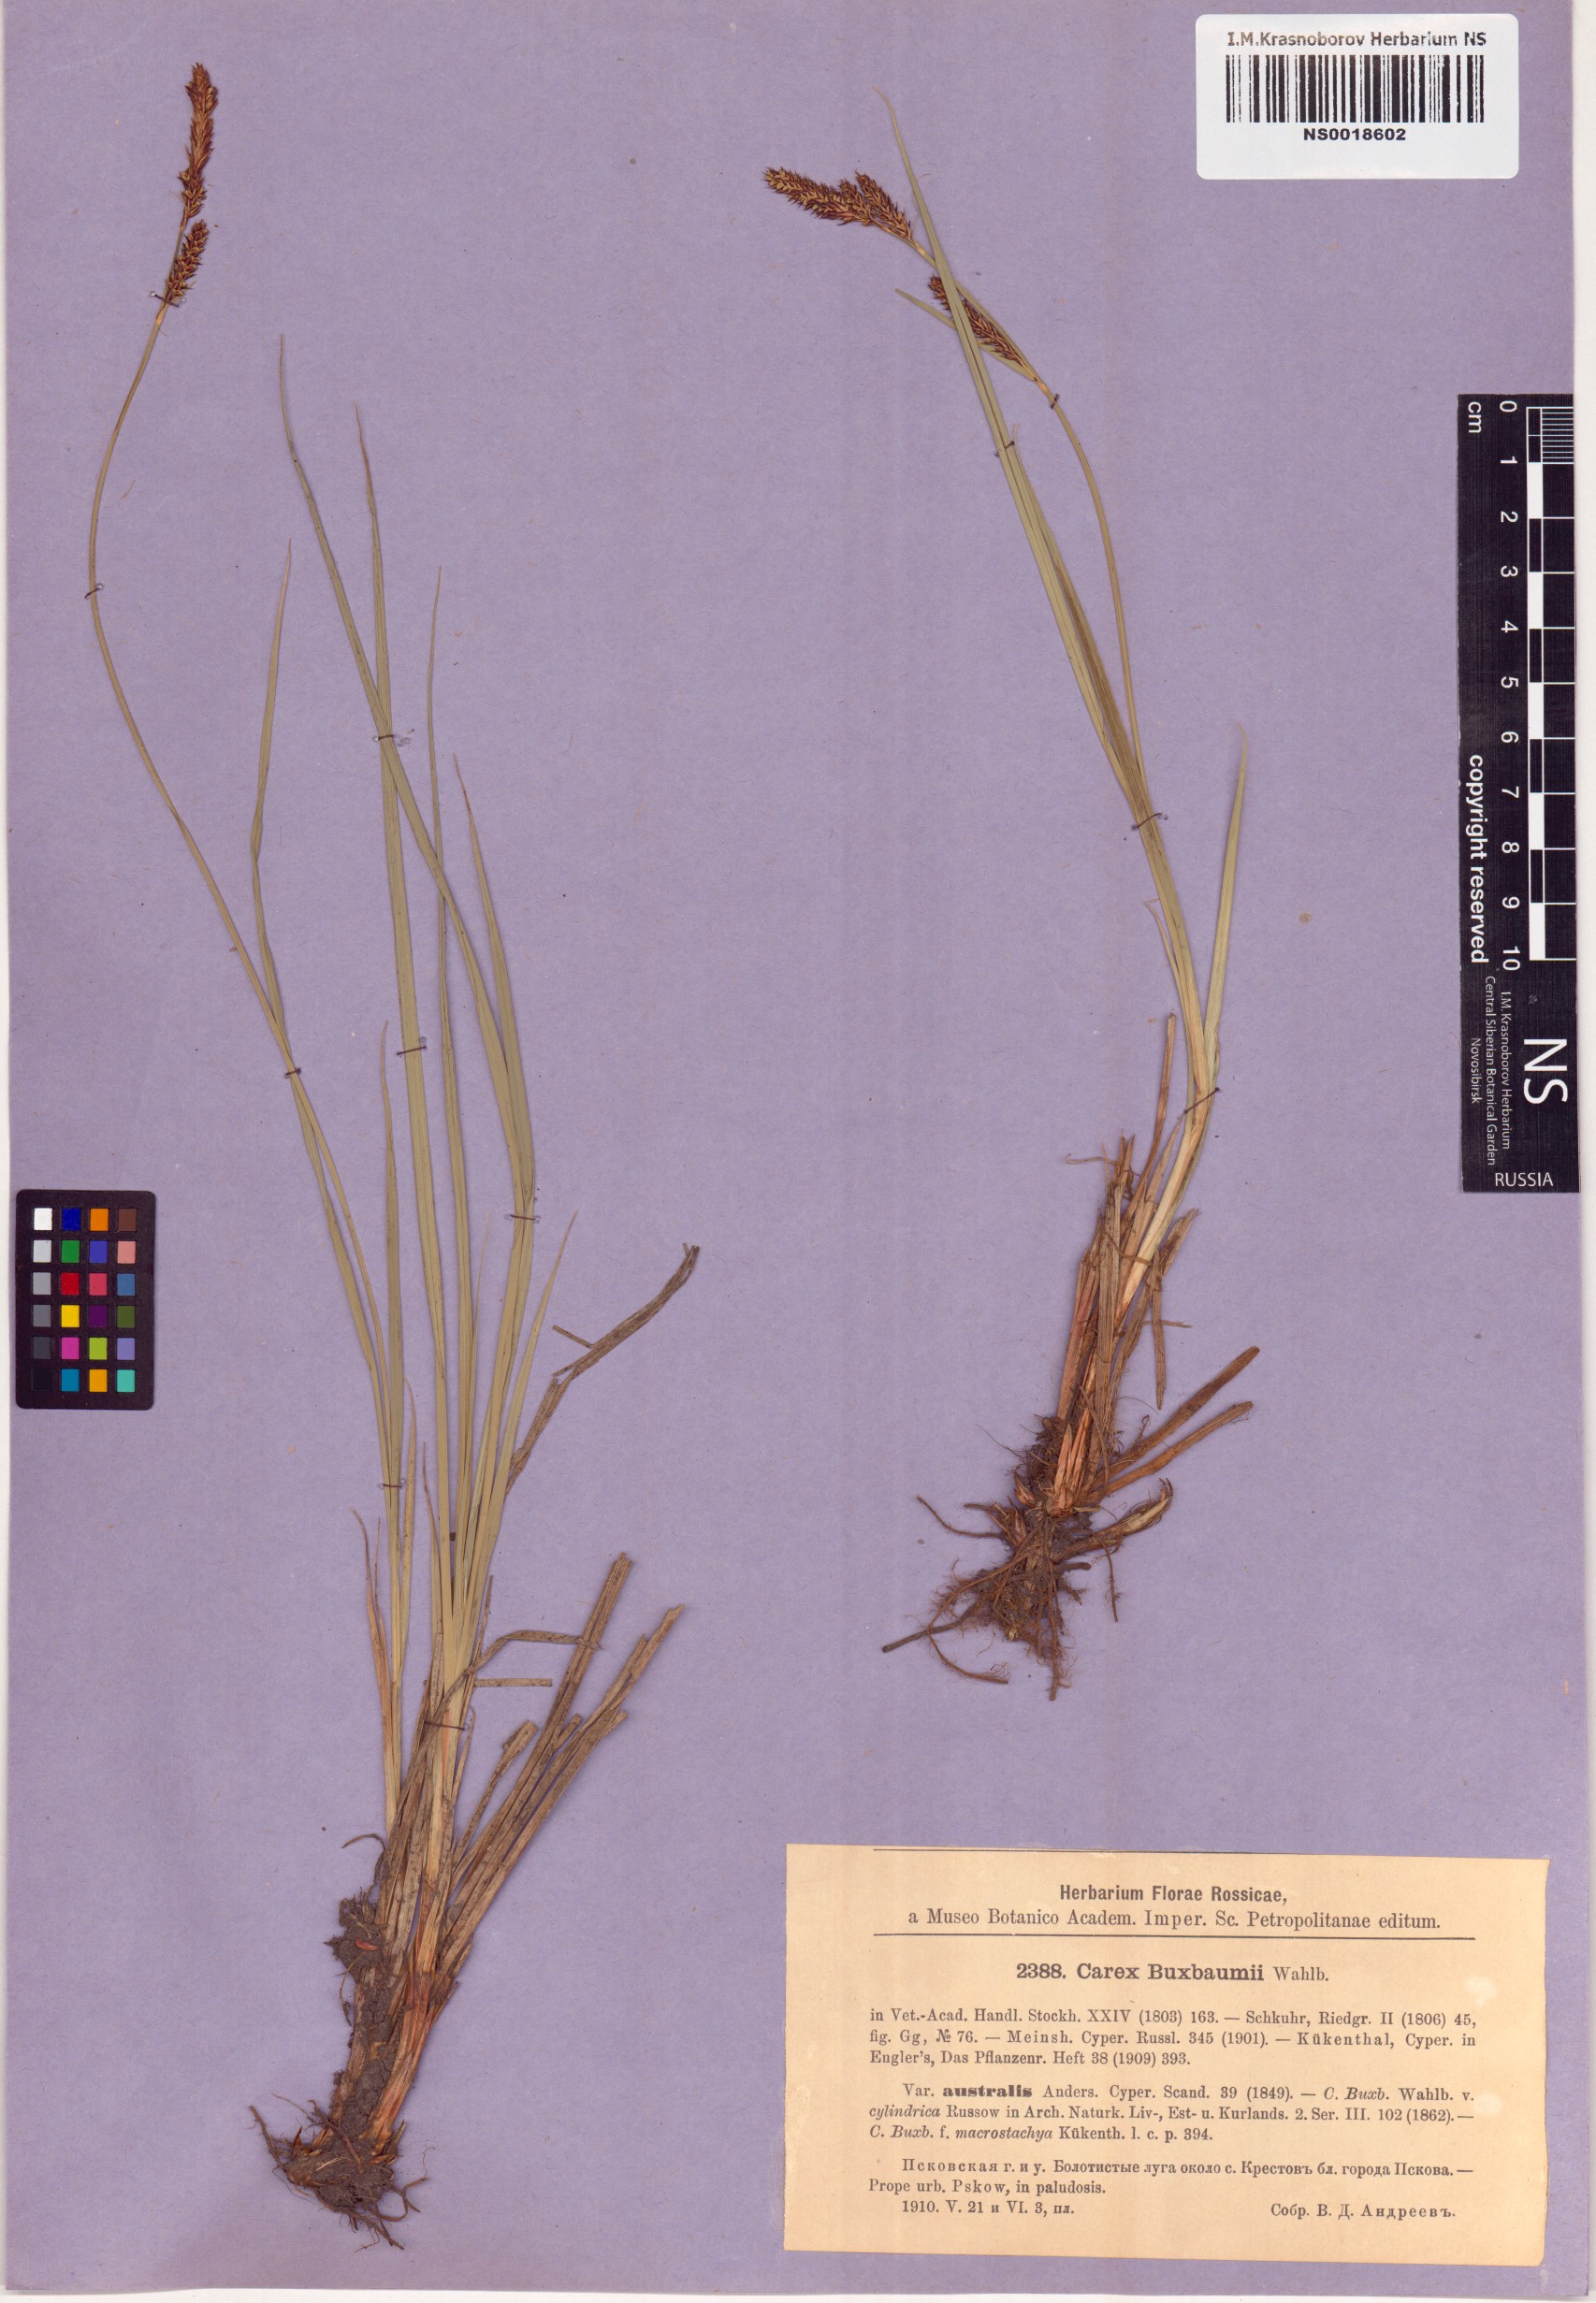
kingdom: Plantae
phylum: Tracheophyta
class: Liliopsida
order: Poales
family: Cyperaceae
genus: Carex
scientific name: Carex hartmaniorum
